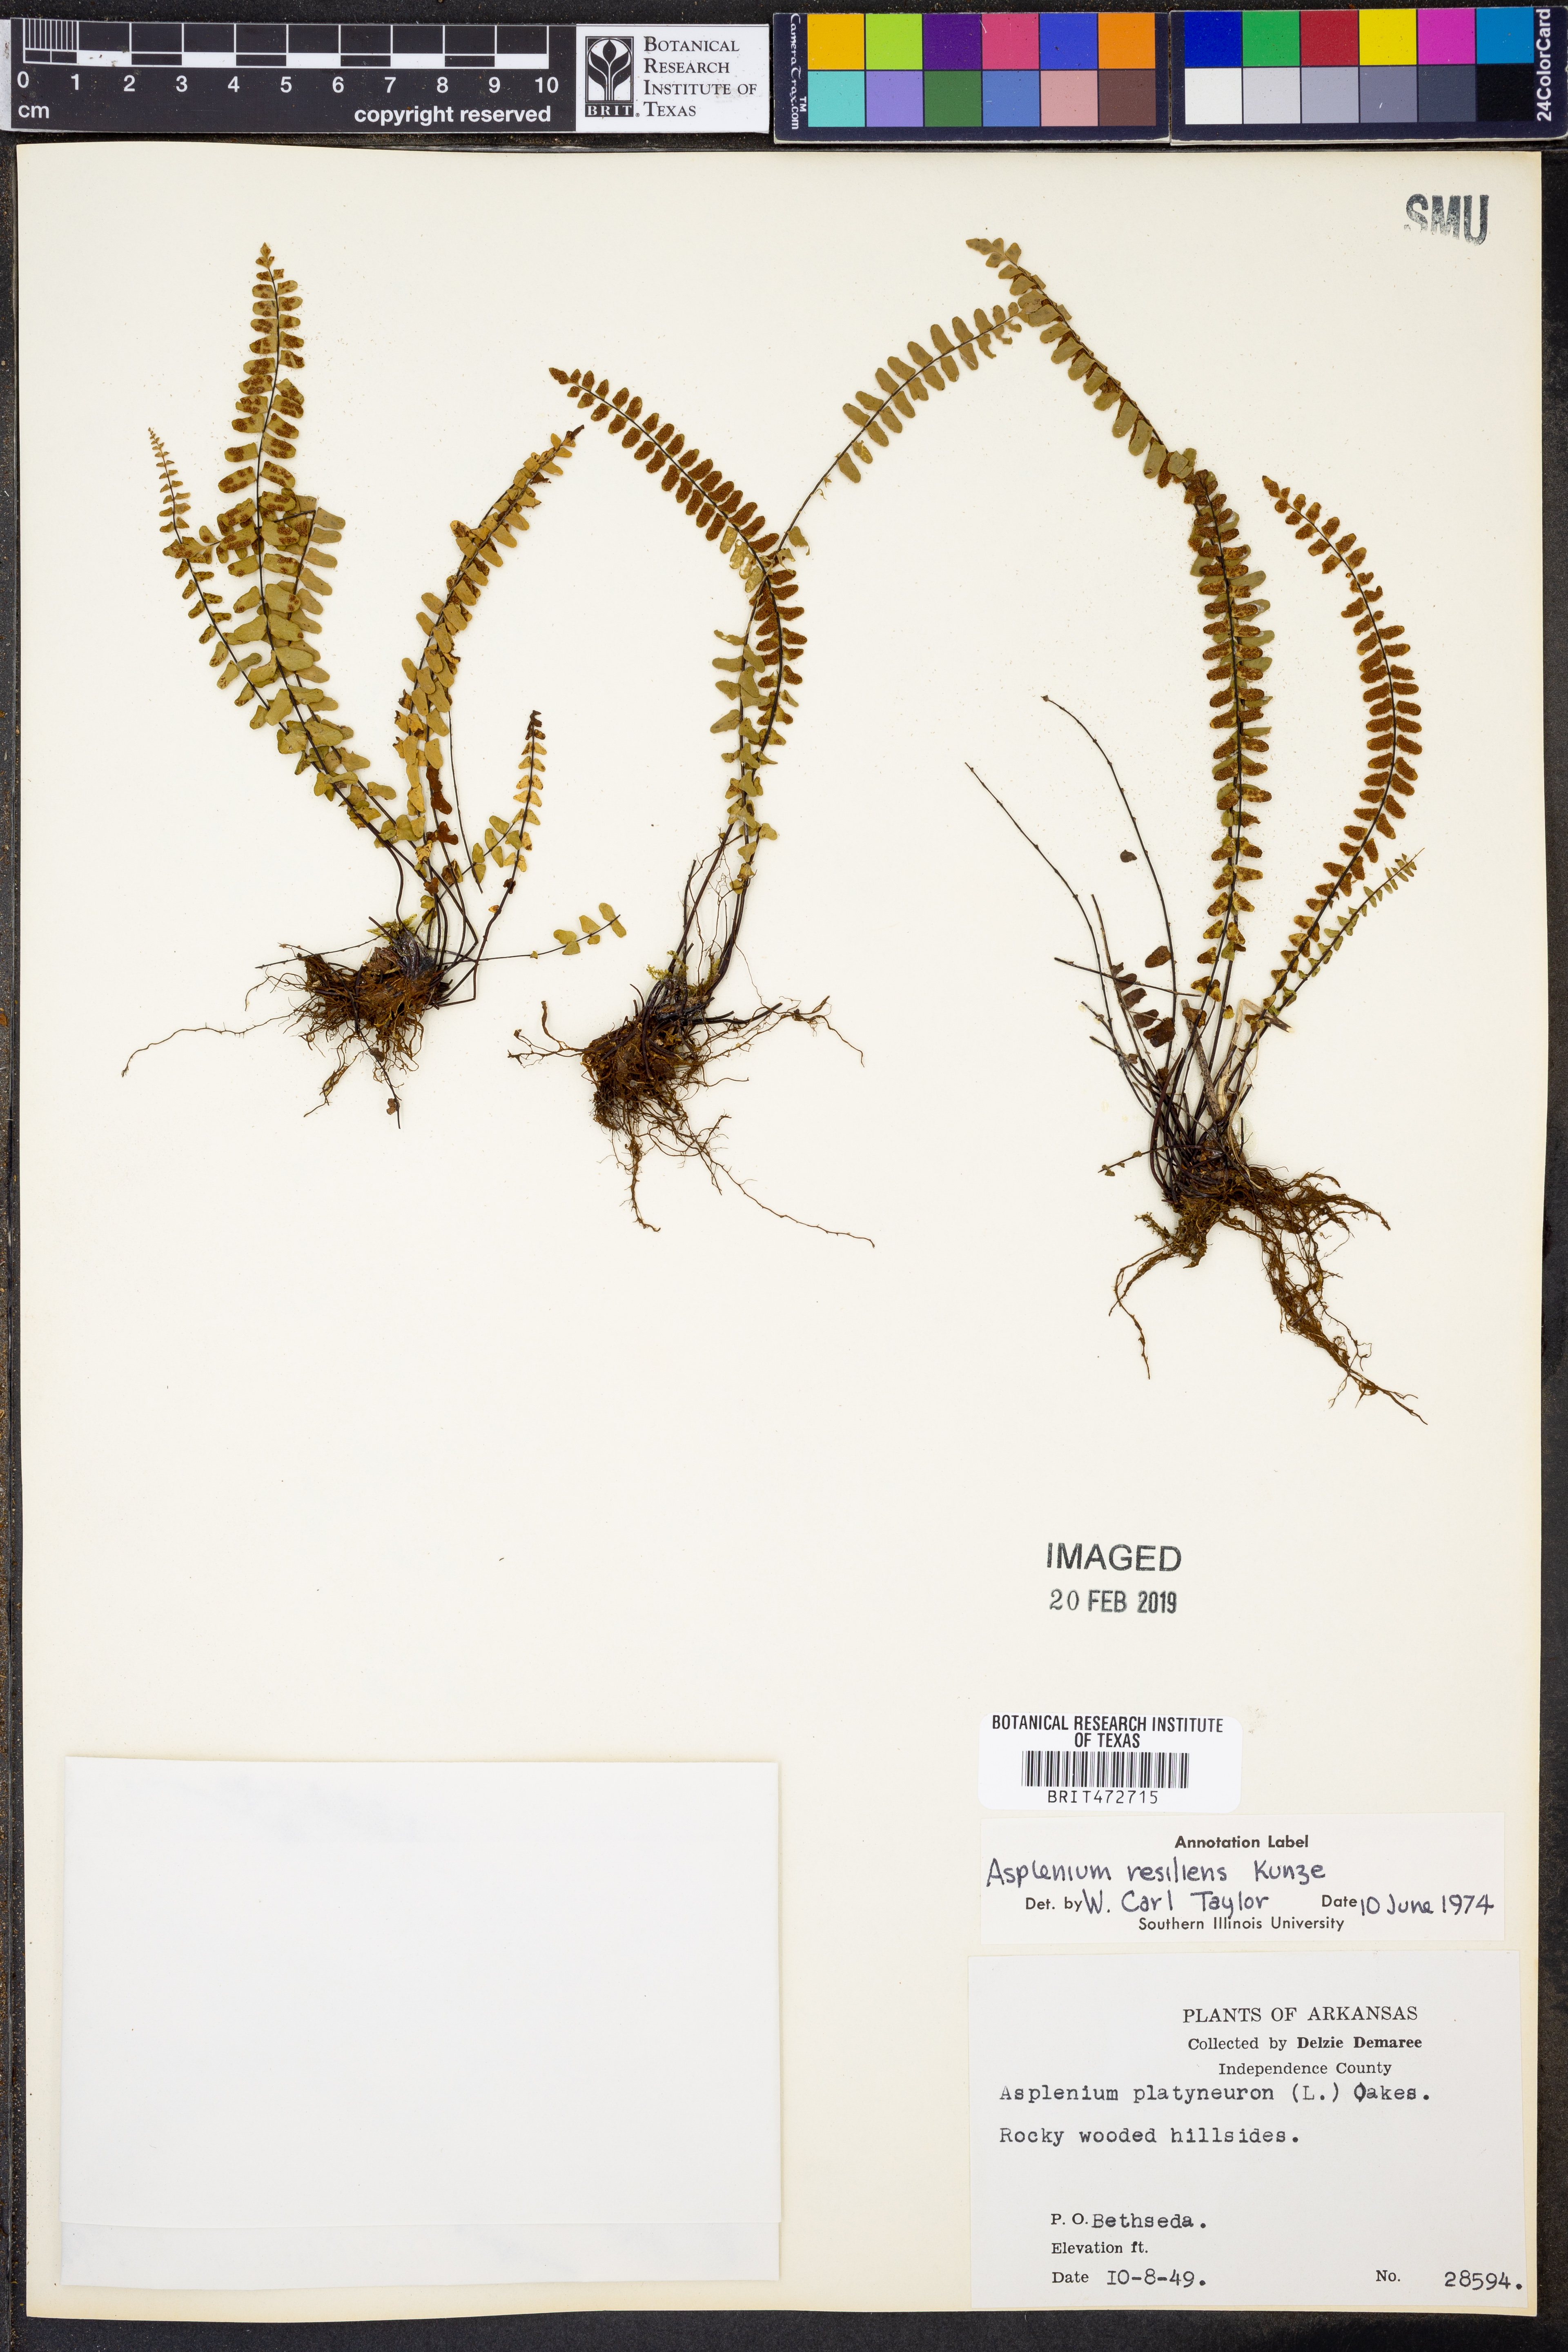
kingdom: Plantae
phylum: Tracheophyta
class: Polypodiopsida
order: Polypodiales
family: Aspleniaceae
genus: Asplenium
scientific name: Asplenium resiliens
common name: Blackstem spleenwort
